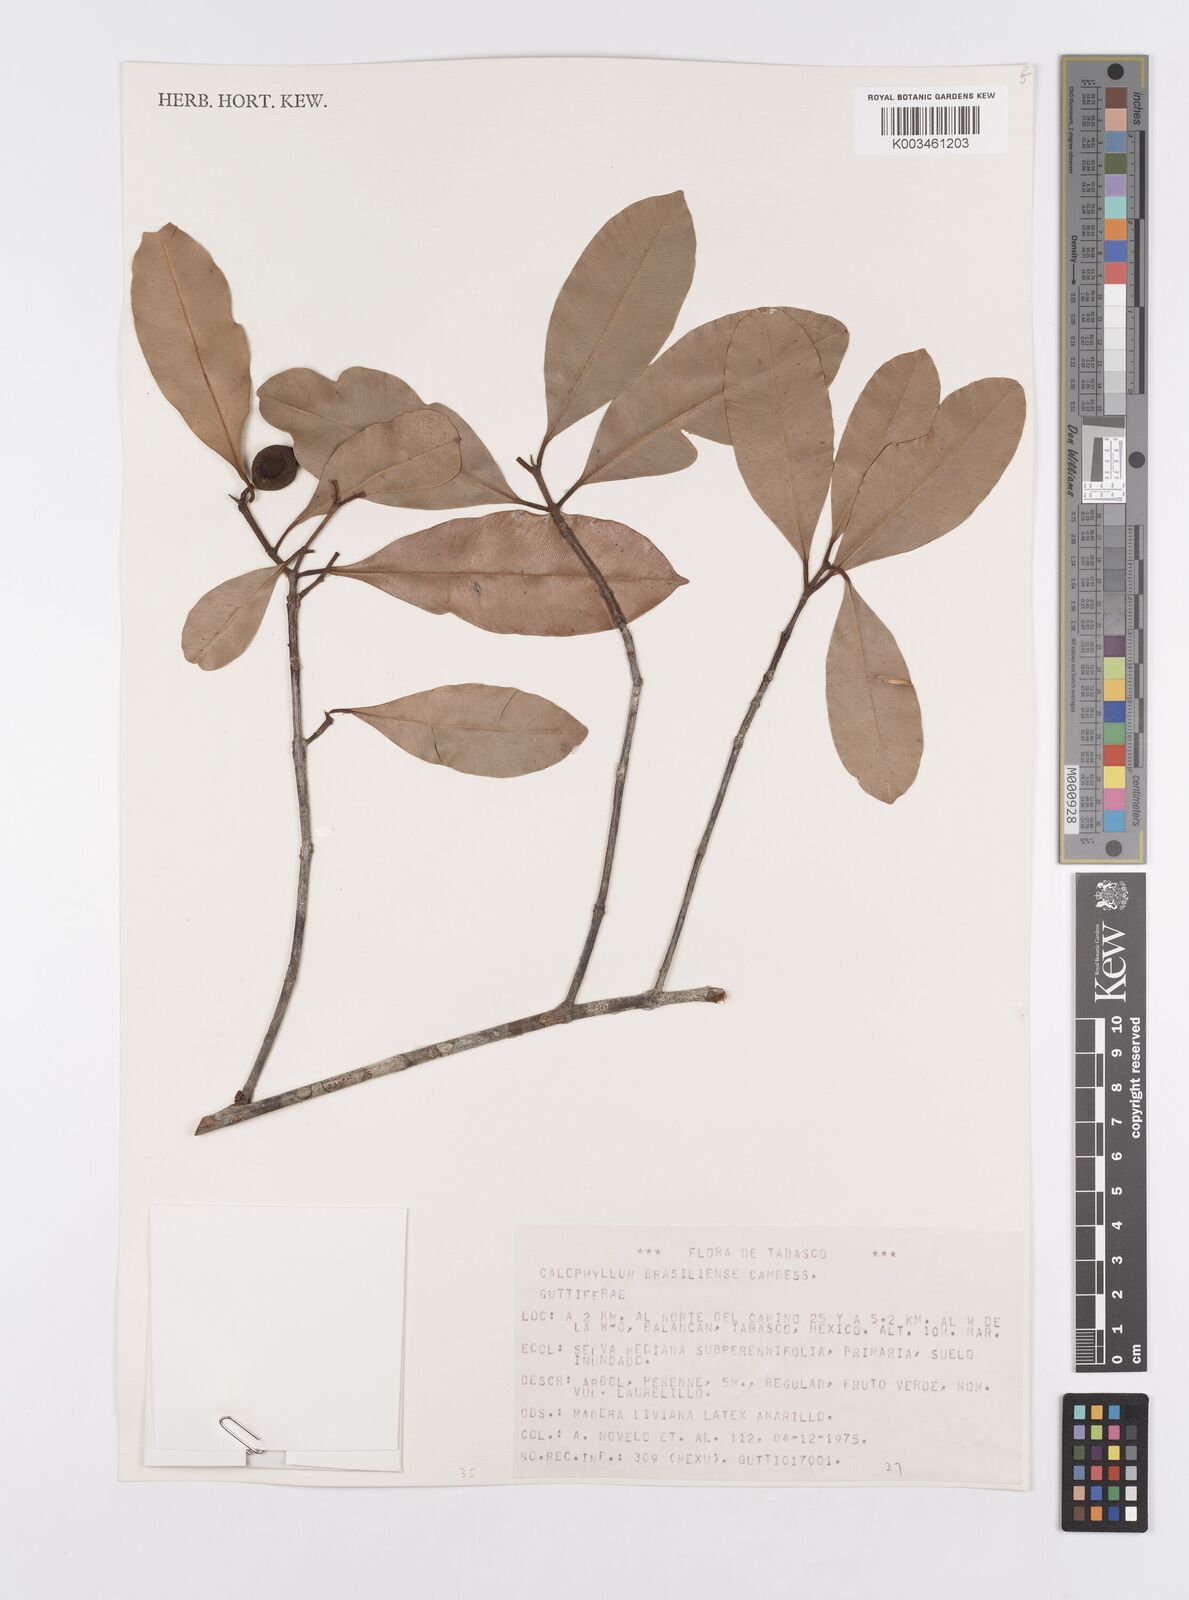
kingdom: Plantae
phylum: Tracheophyta
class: Magnoliopsida
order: Malpighiales
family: Calophyllaceae
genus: Calophyllum
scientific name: Calophyllum brasiliense
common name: Santa maria
